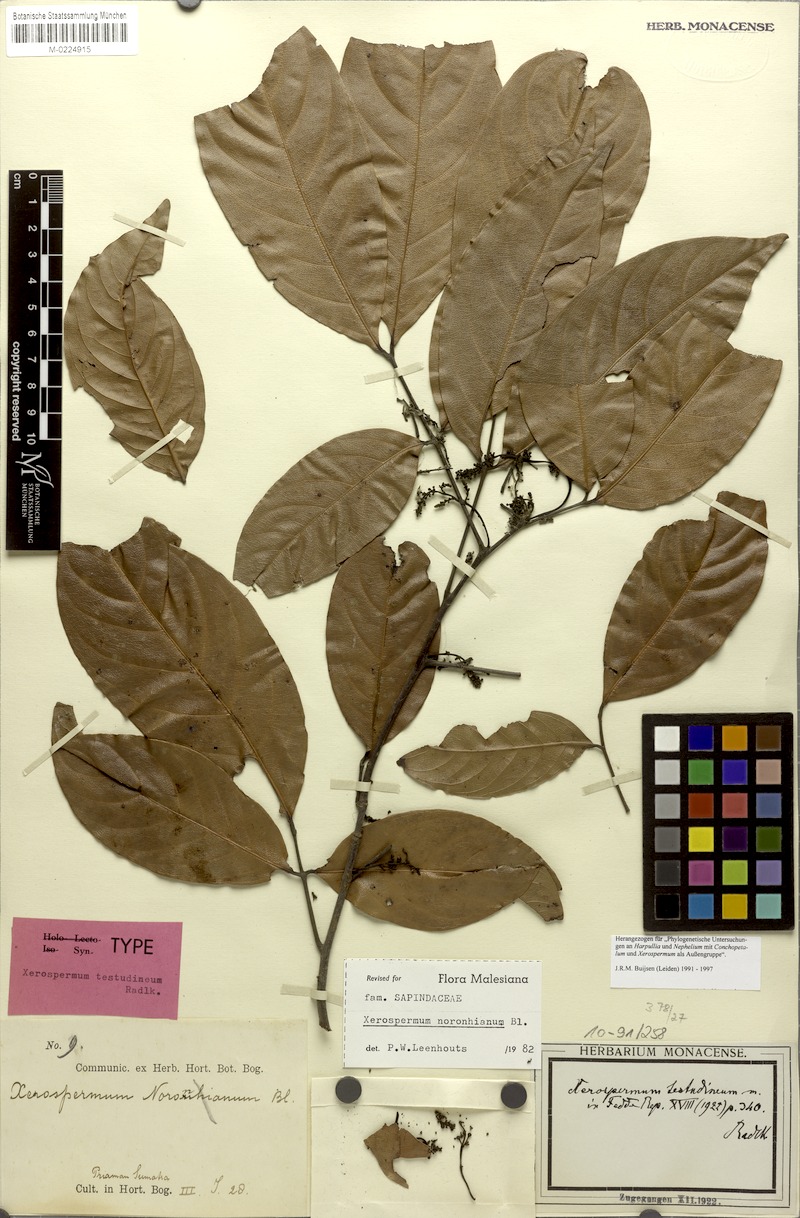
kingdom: Plantae
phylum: Tracheophyta
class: Magnoliopsida
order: Sapindales
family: Sapindaceae
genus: Xerospermum
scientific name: Xerospermum noronhianum
